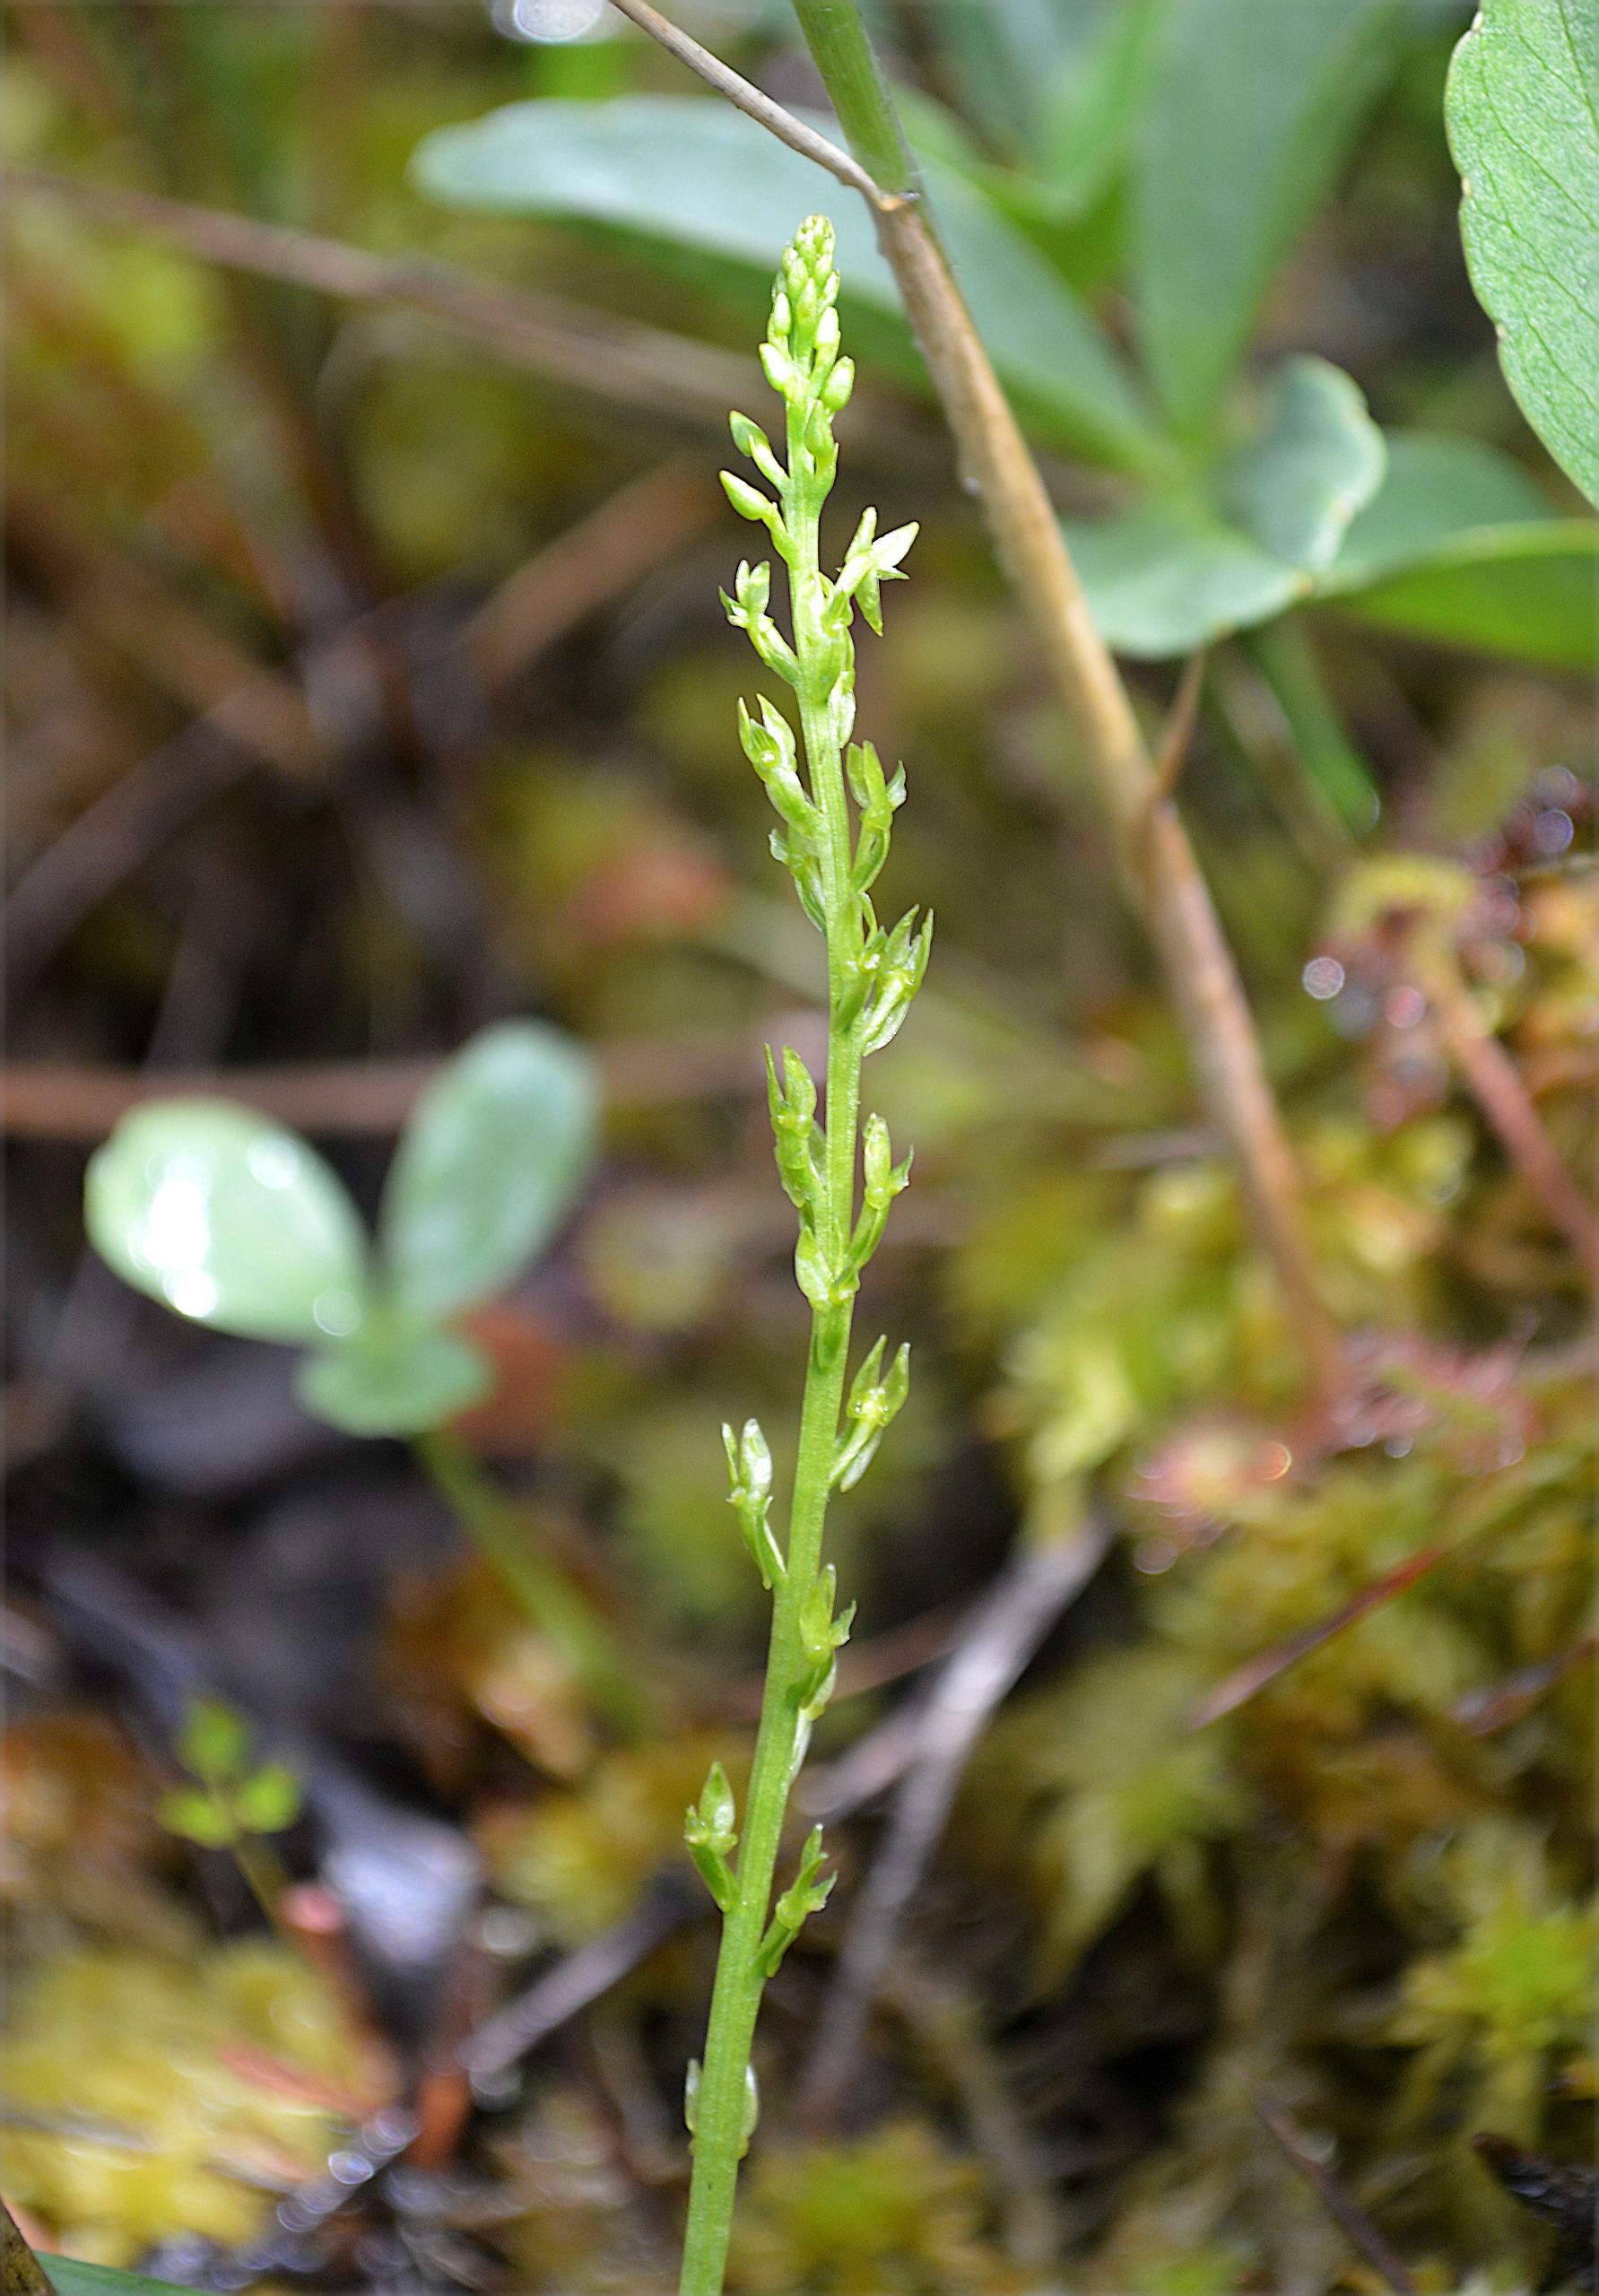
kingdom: Plantae
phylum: Tracheophyta
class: Liliopsida
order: Asparagales
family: Orchidaceae
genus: Hammarbya
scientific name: Hammarbya paludosa
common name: Hjertelæbe
